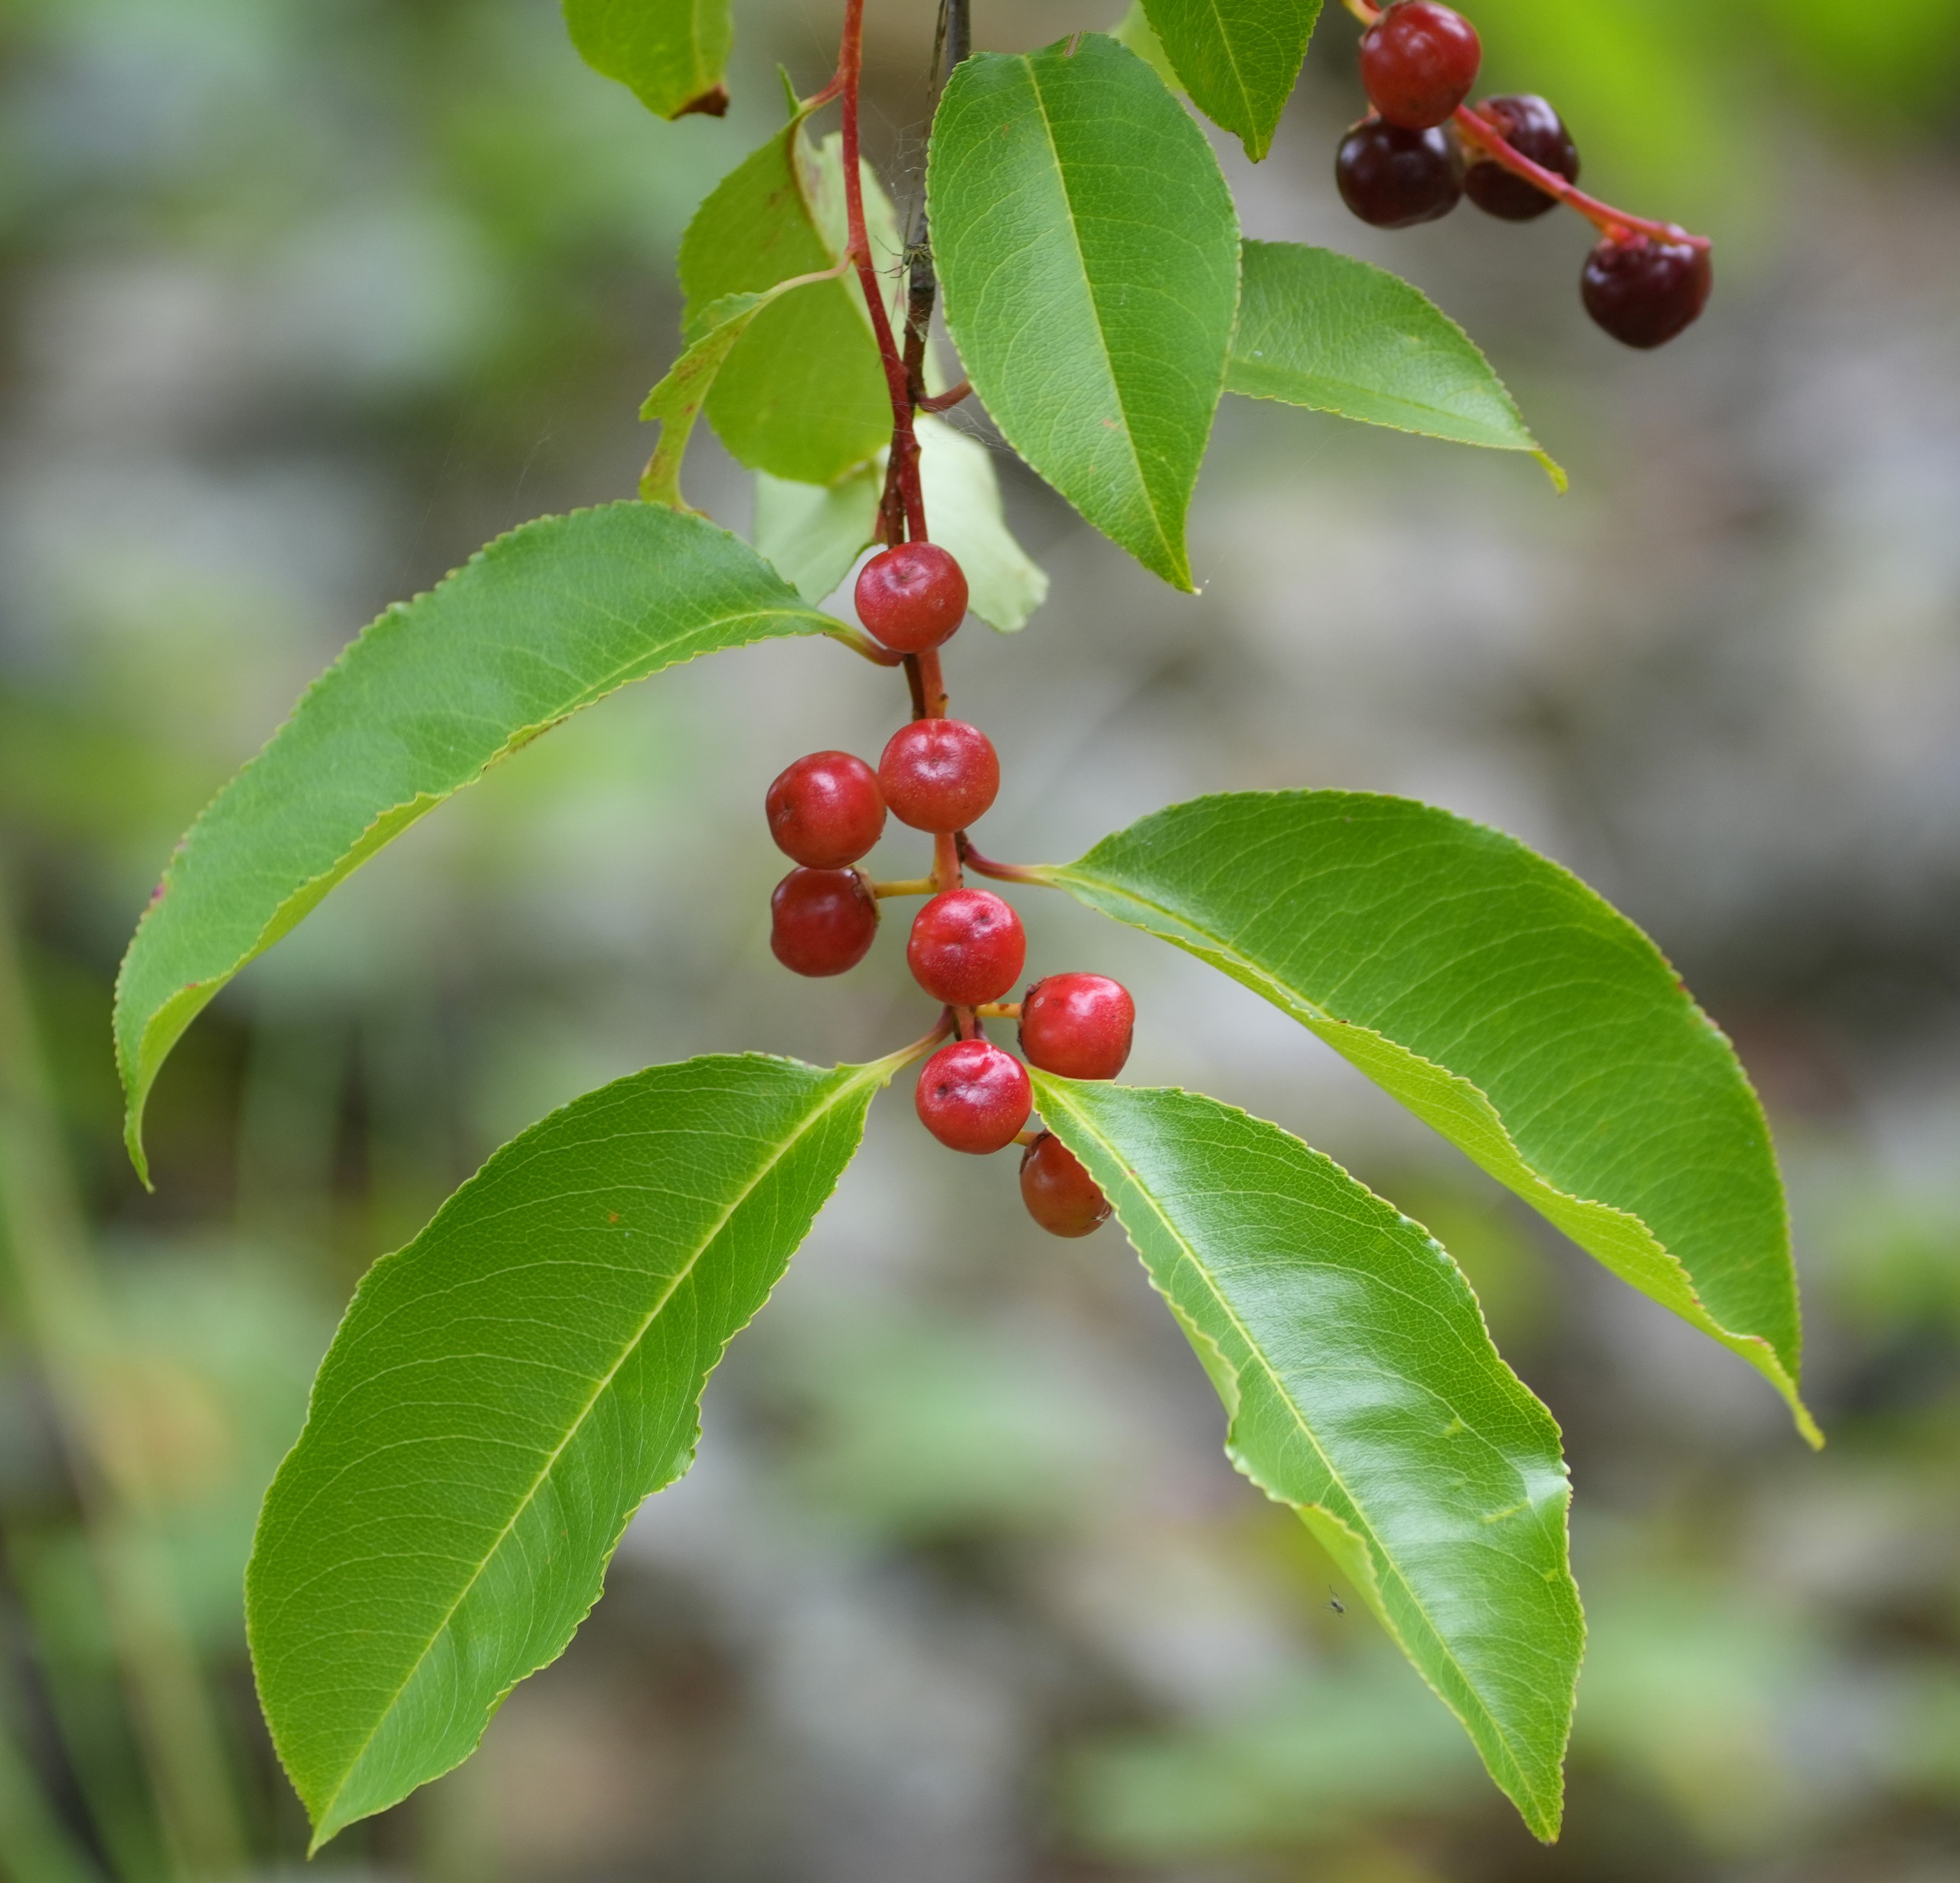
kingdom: Plantae
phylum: Tracheophyta
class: Magnoliopsida
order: Rosales
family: Rosaceae
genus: Prunus
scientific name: Prunus serotina
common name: Glansbladet hæg
